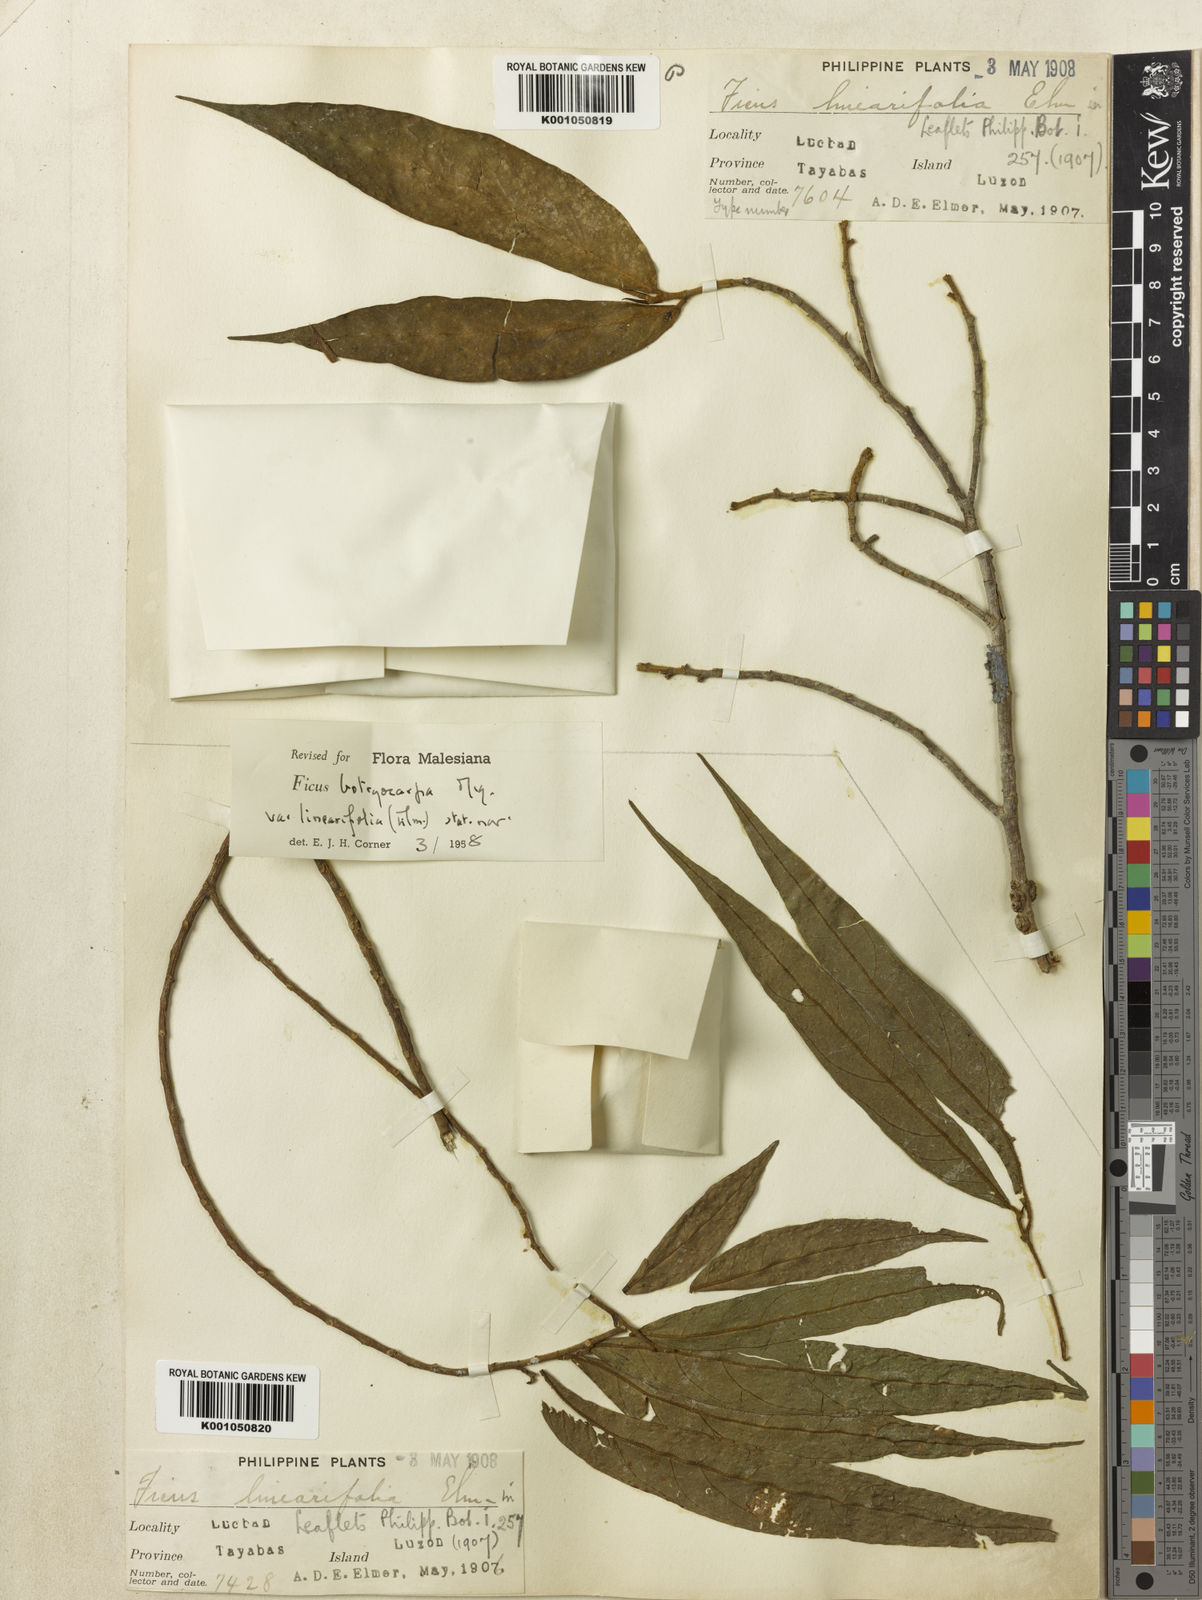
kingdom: Plantae
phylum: Tracheophyta
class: Magnoliopsida
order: Rosales
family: Moraceae
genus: Ficus
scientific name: Ficus botryocarpa
